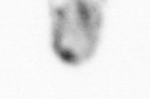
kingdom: Animalia
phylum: Chaetognatha
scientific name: Chaetognatha
